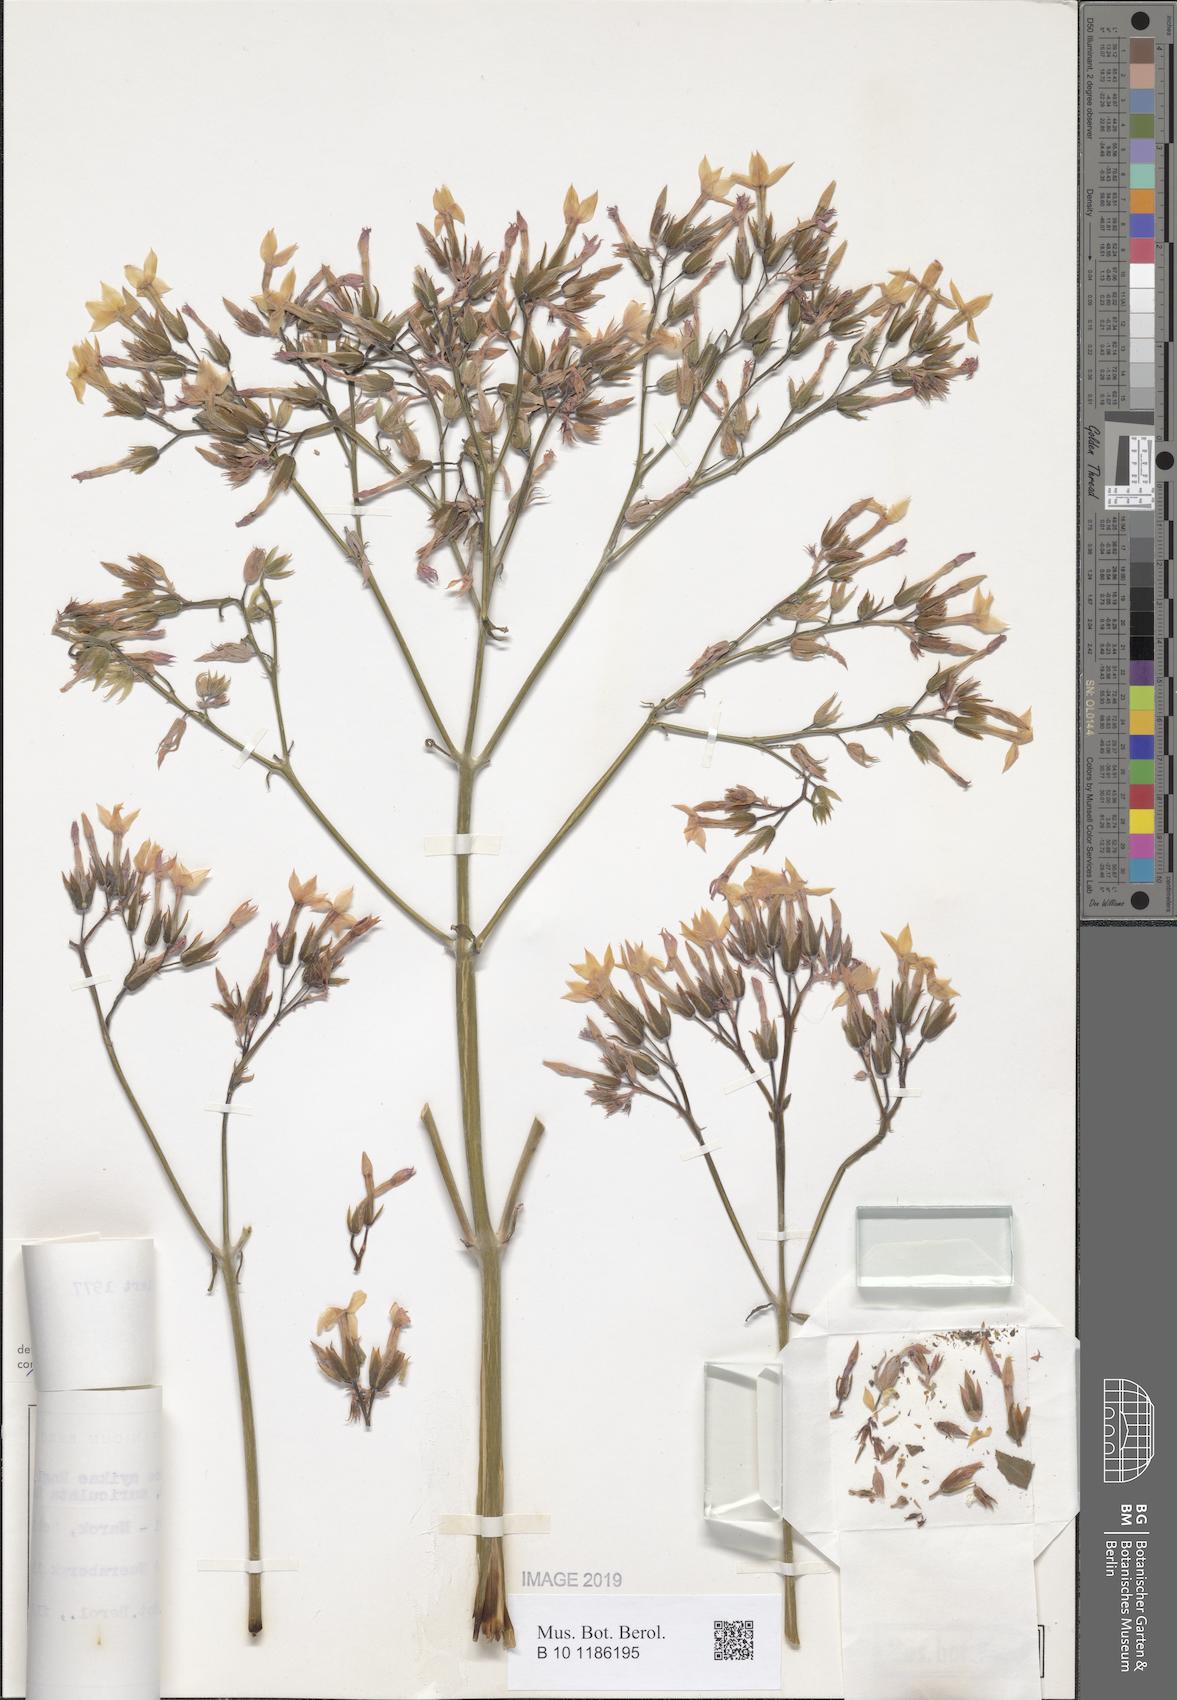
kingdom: Plantae
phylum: Tracheophyta
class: Magnoliopsida
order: Saxifragales
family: Crassulaceae
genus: Kalanchoe
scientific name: Kalanchoe auriculata
